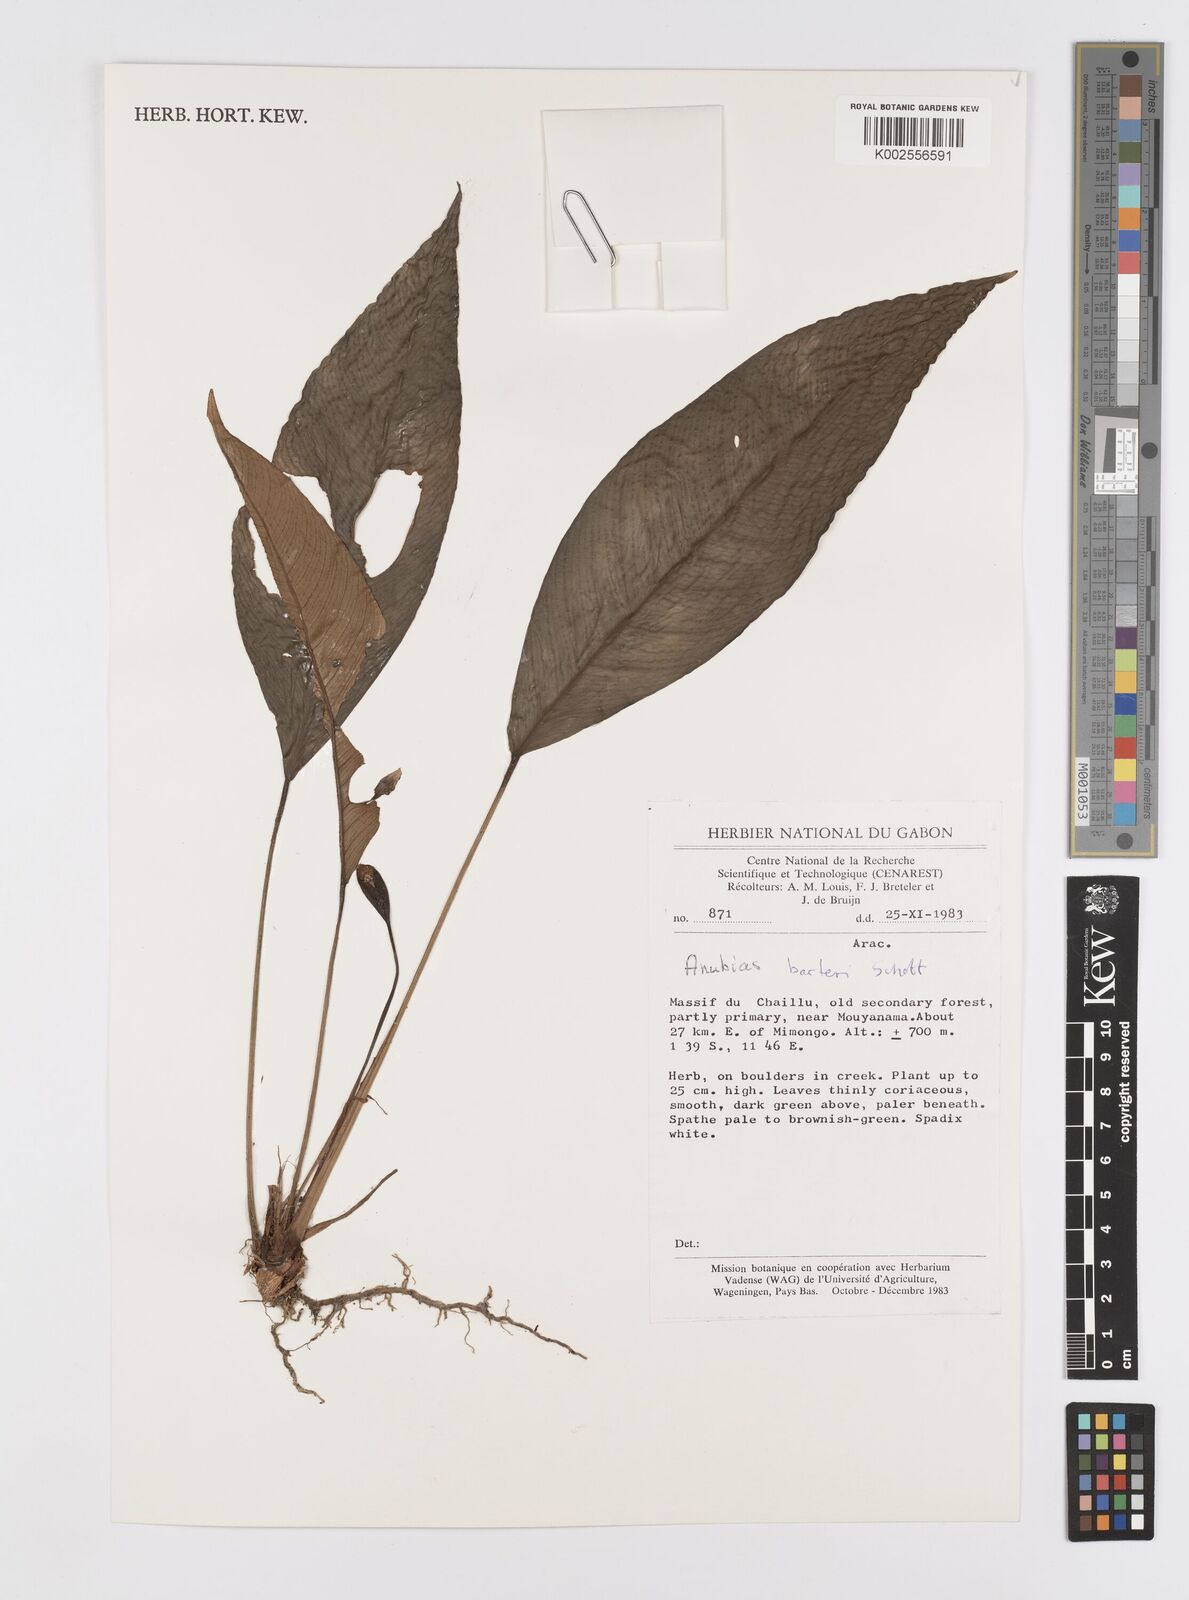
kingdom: Plantae
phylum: Tracheophyta
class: Liliopsida
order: Alismatales
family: Araceae
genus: Anubias
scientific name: Anubias barteri
